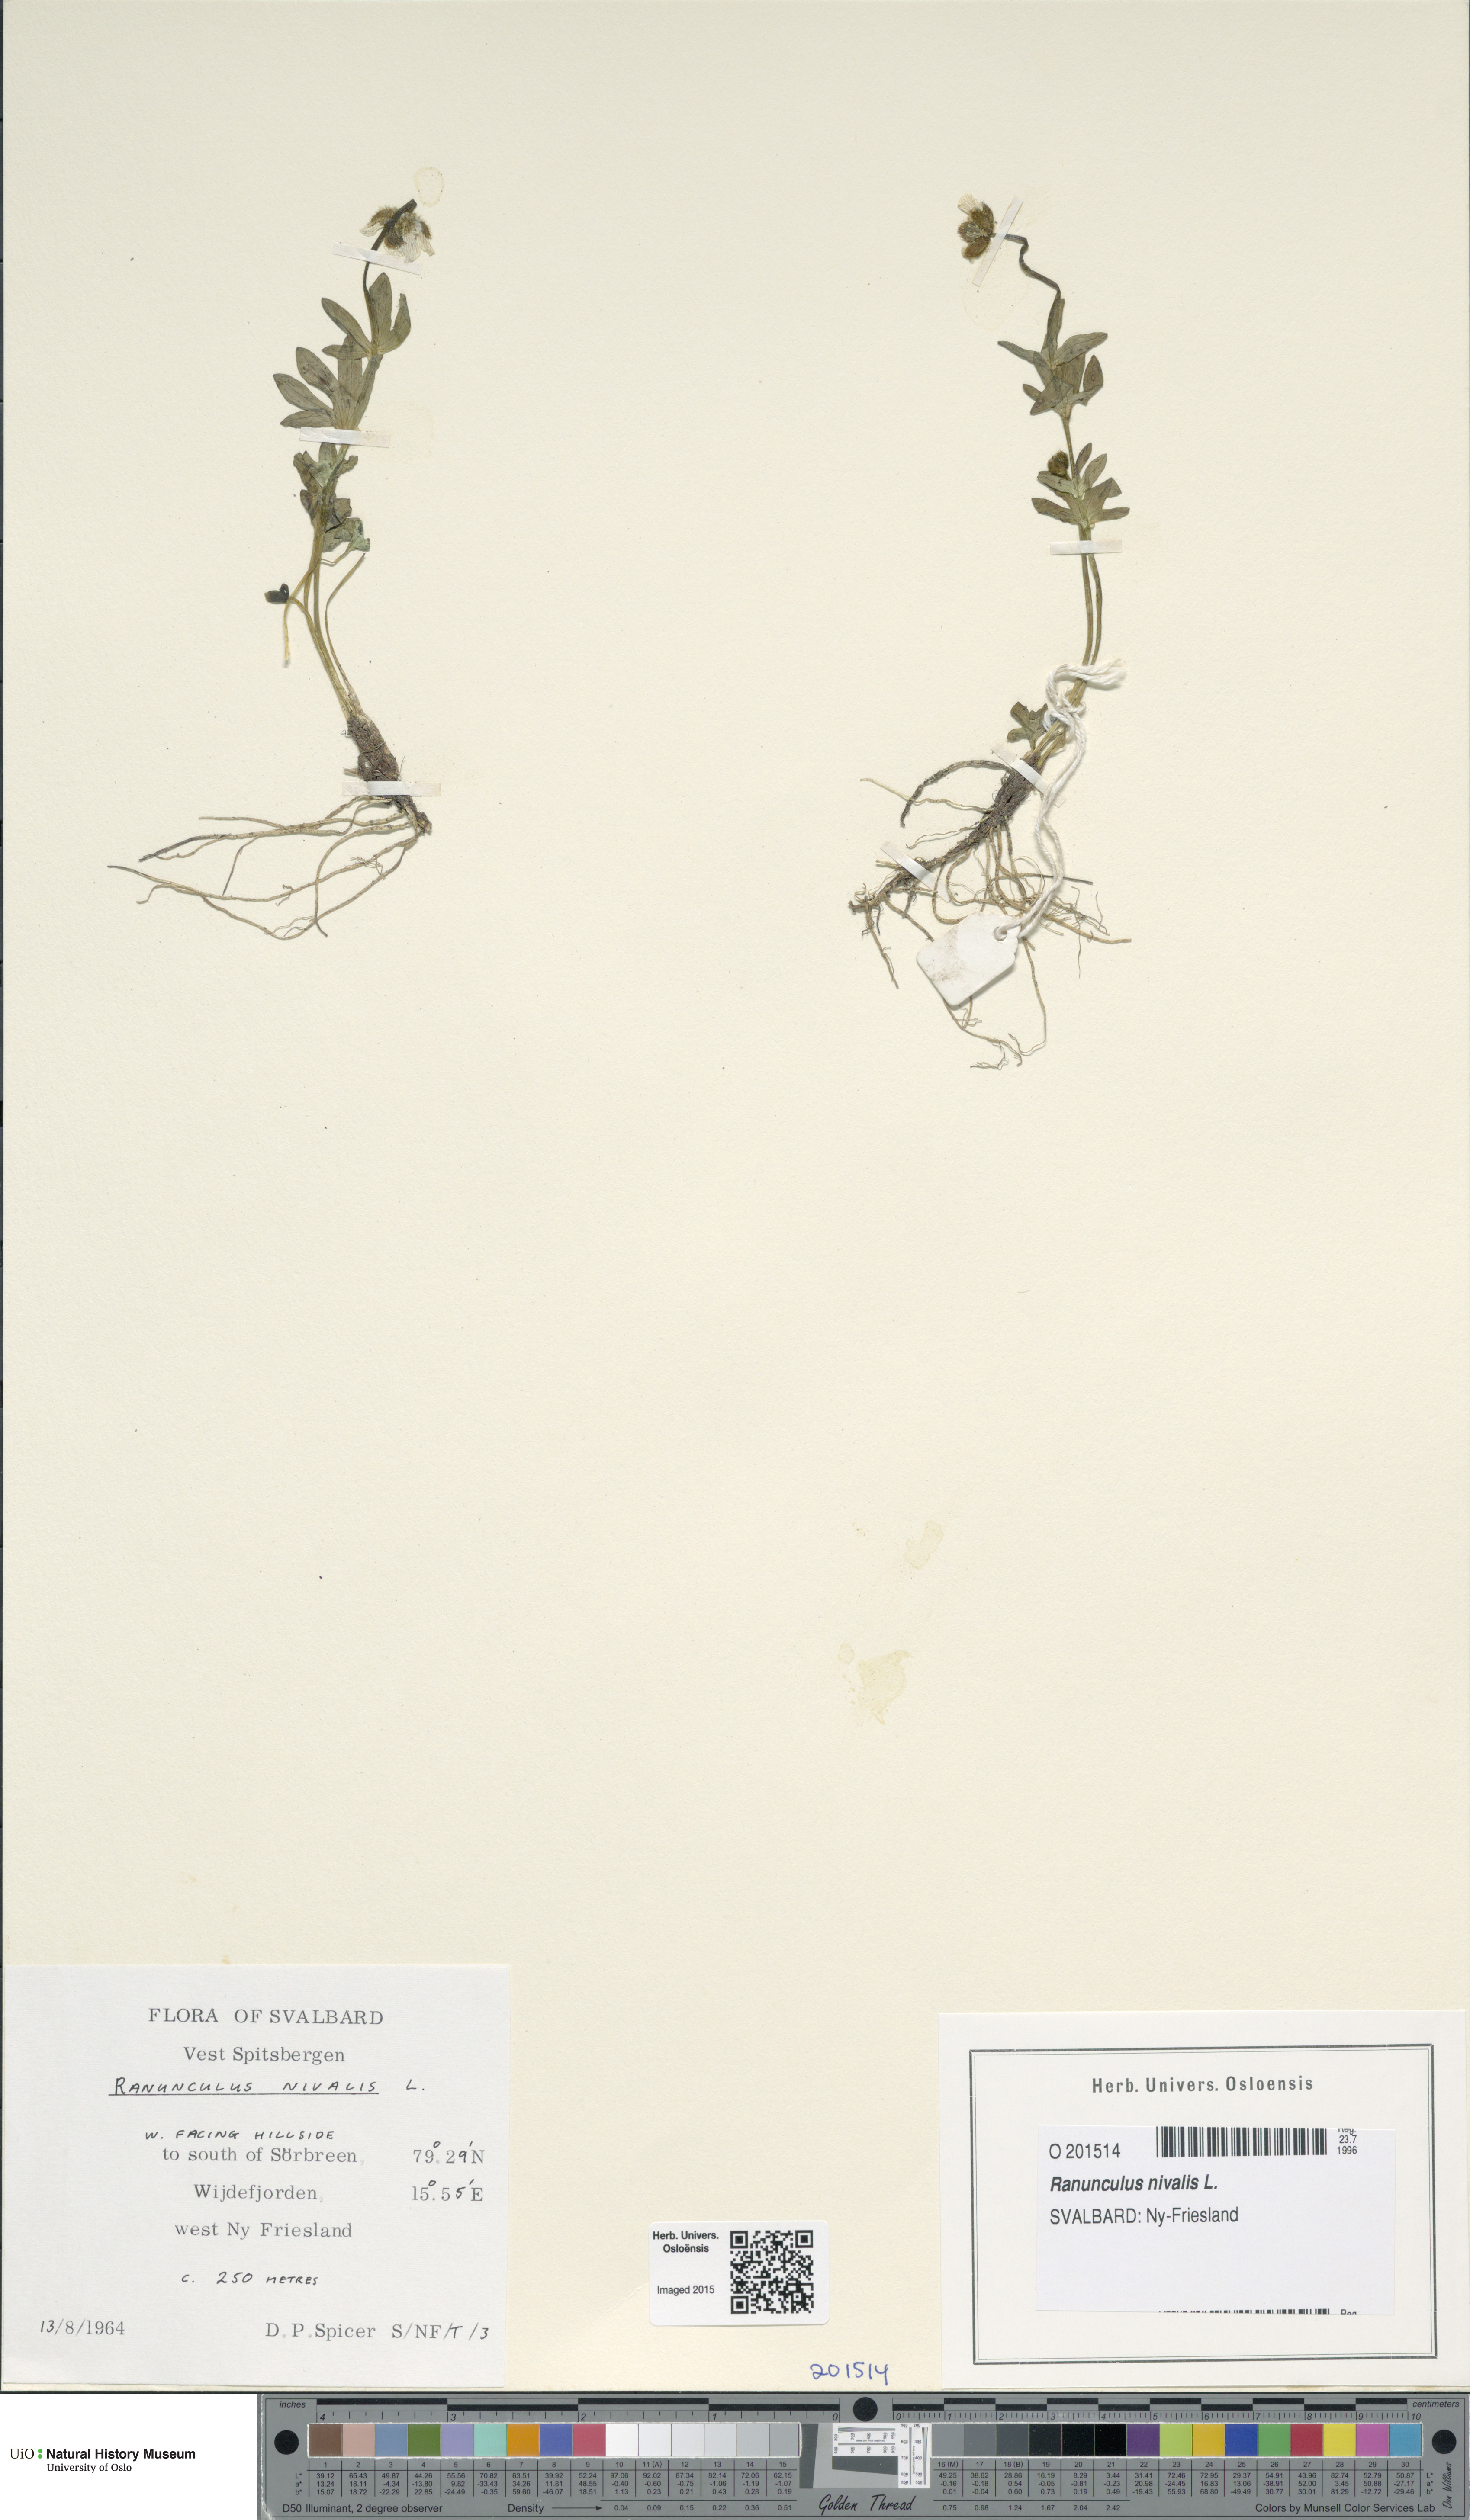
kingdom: Plantae
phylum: Tracheophyta
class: Magnoliopsida
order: Ranunculales
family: Ranunculaceae
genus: Ranunculus
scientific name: Ranunculus nivalis
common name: Snow buttercup
